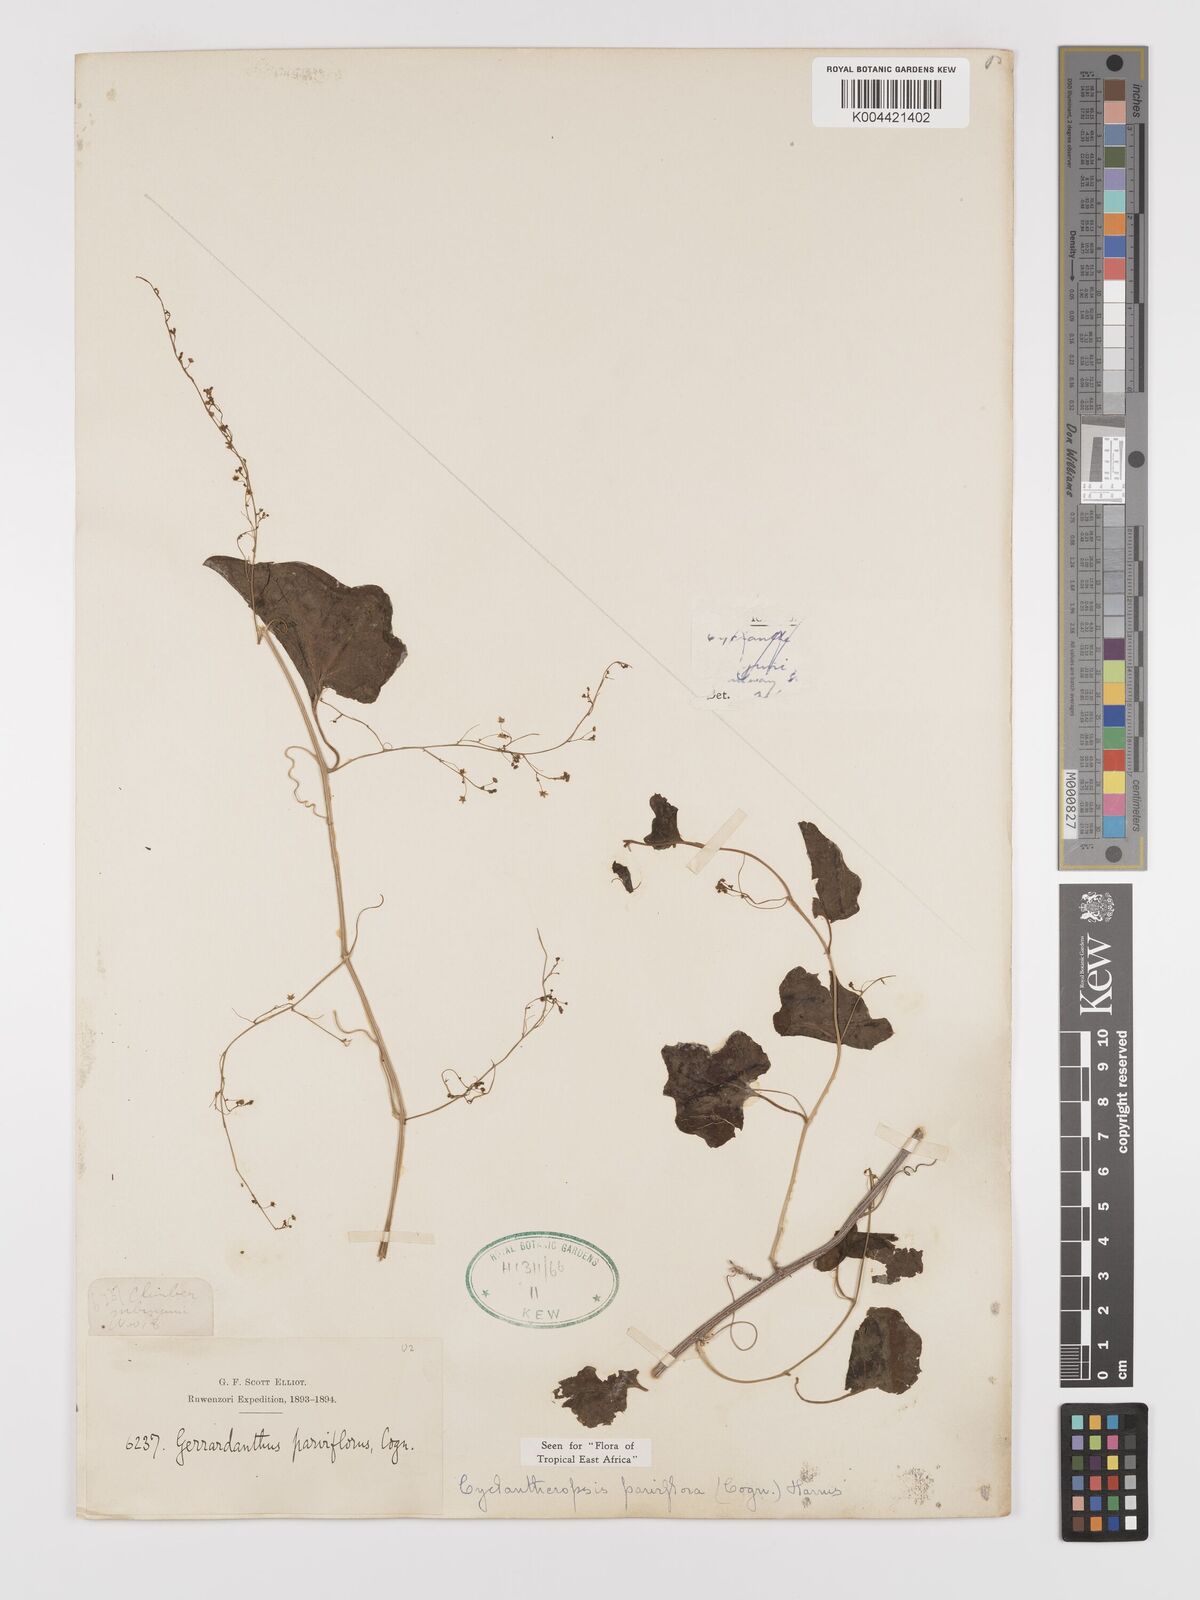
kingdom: Plantae
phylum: Tracheophyta
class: Magnoliopsida
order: Cucurbitales
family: Cucurbitaceae
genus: Cyclantheropsis
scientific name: Cyclantheropsis parviflora
